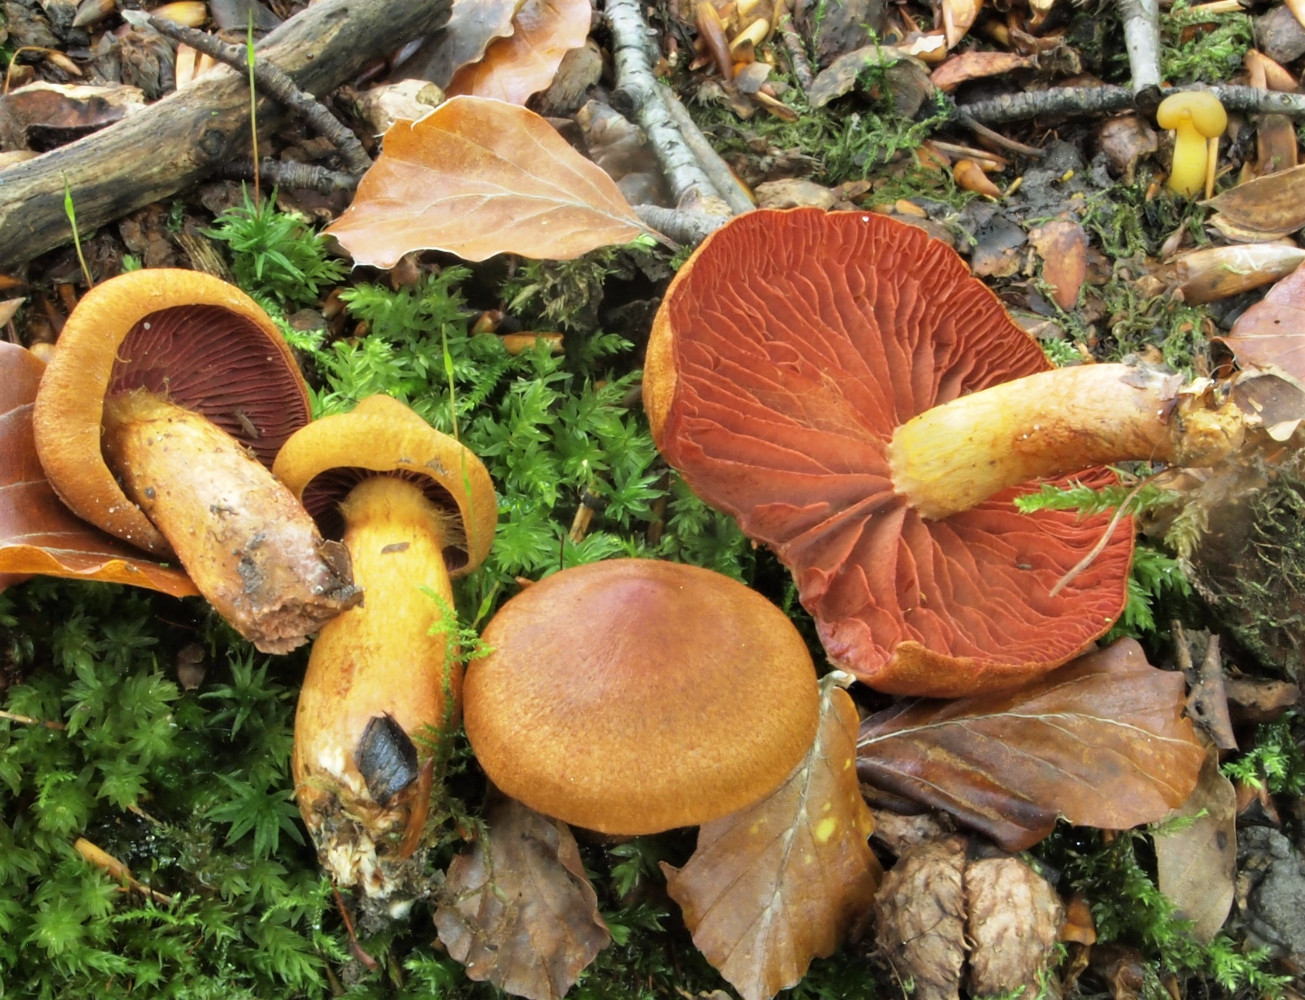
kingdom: Fungi
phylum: Basidiomycota
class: Agaricomycetes
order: Agaricales
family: Cortinariaceae
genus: Cortinarius
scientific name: Cortinarius
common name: cinnoberbladet slørhat
